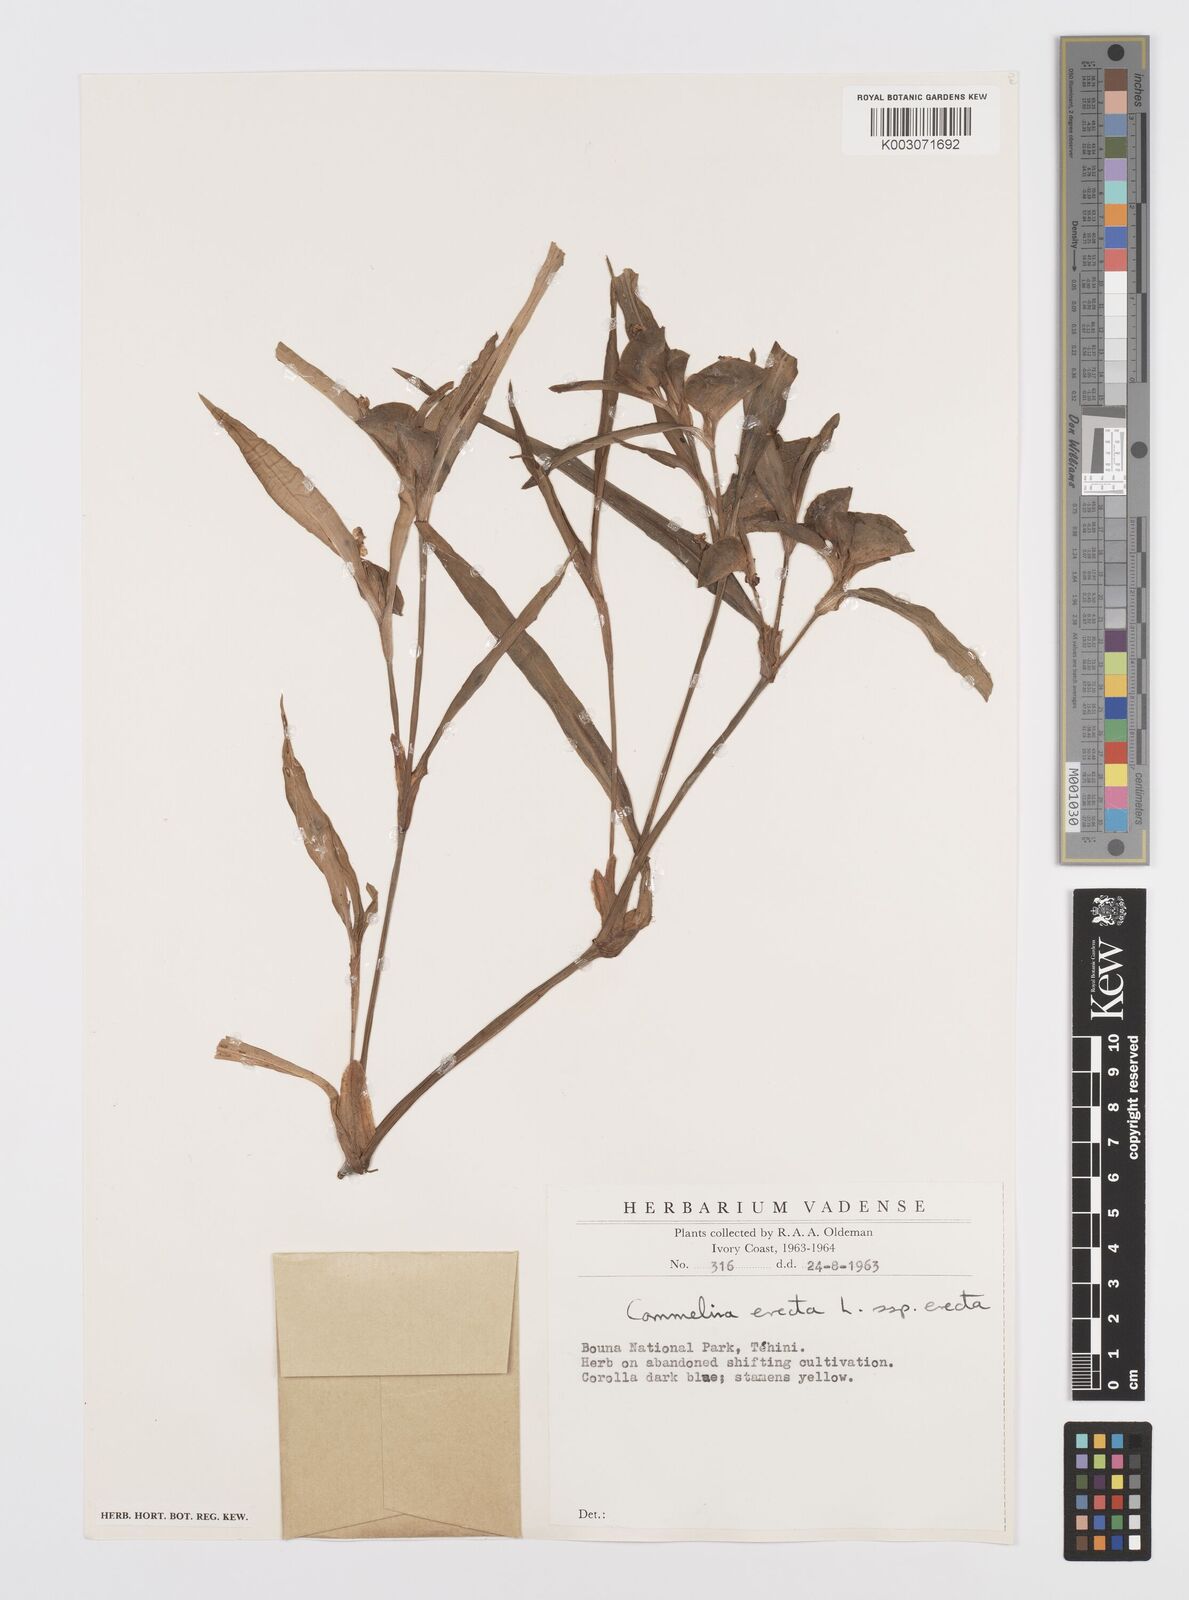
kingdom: Plantae
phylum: Tracheophyta
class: Liliopsida
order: Commelinales
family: Commelinaceae
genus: Commelina
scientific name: Commelina erecta
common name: Blousel blommetjie
